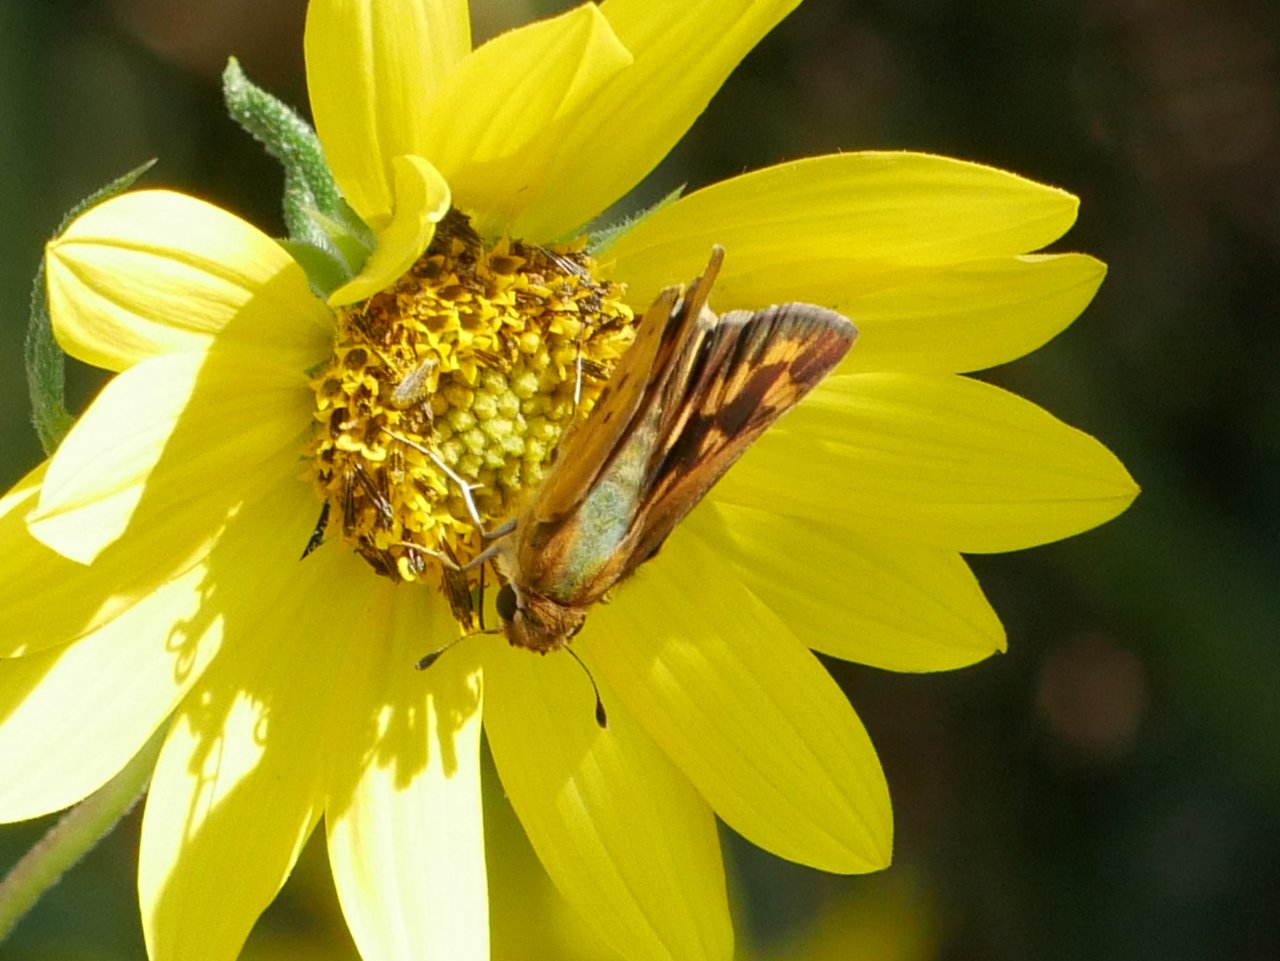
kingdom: Animalia
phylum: Arthropoda
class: Insecta
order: Lepidoptera
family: Hesperiidae
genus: Hylephila
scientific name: Hylephila phyleus
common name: Fiery Skipper
